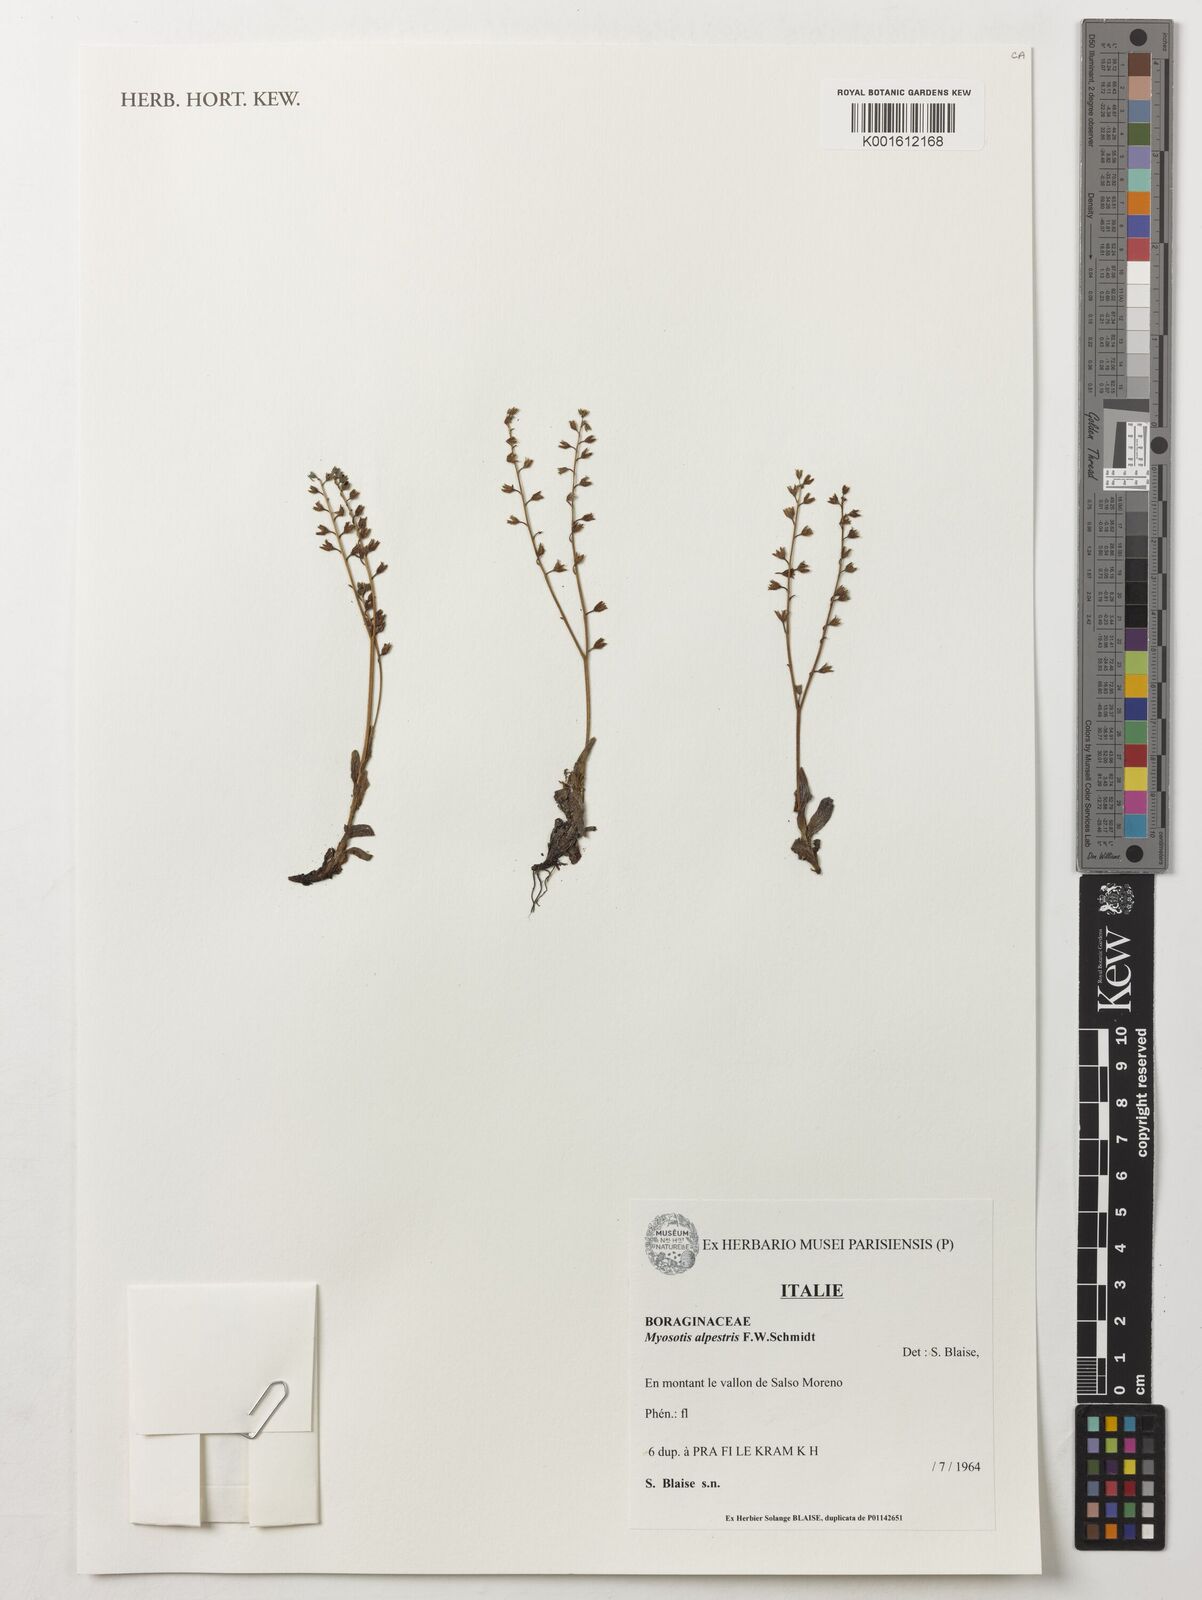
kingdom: Plantae
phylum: Tracheophyta
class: Magnoliopsida
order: Boraginales
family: Boraginaceae
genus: Myosotis
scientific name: Myosotis alpestris
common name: Alpine forget-me-not
